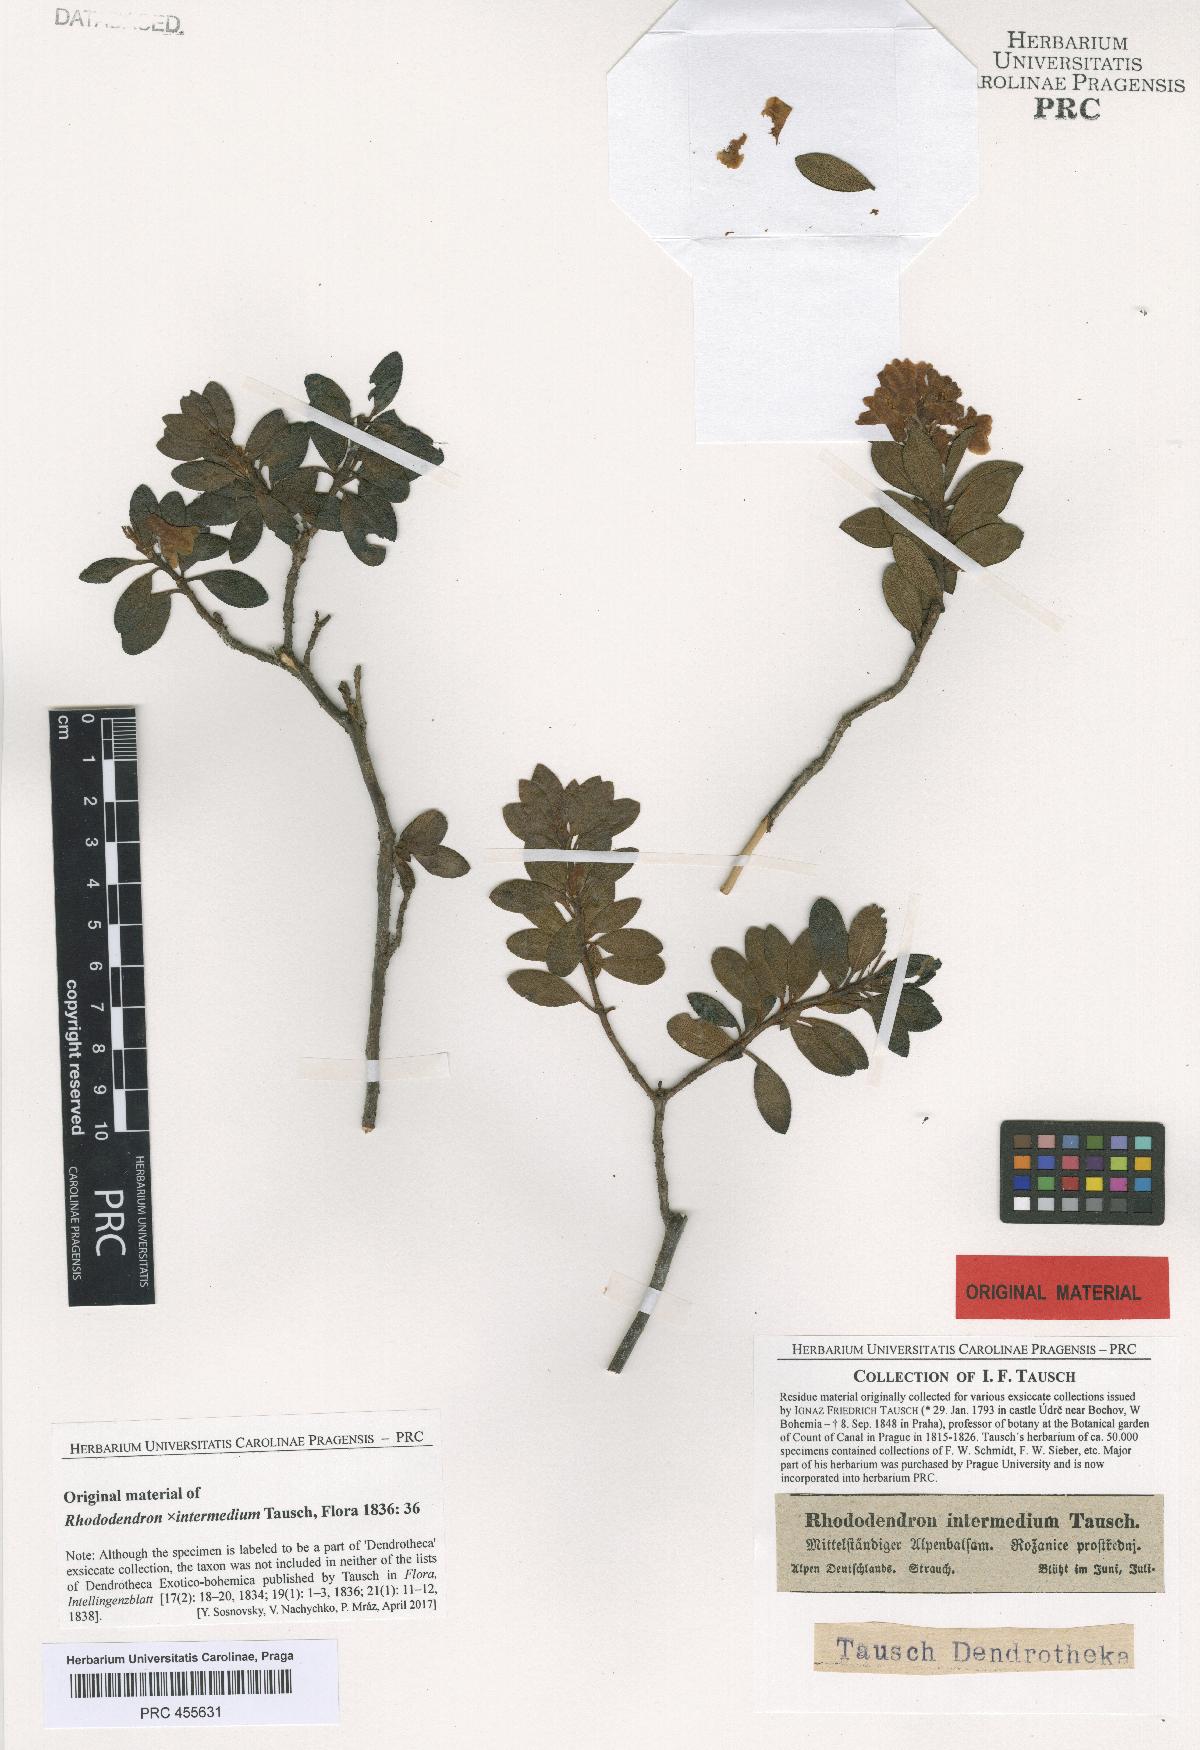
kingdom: Plantae
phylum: Tracheophyta
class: Magnoliopsida
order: Ericales
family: Ericaceae
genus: Rhododendron
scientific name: Rhododendron intermedium
